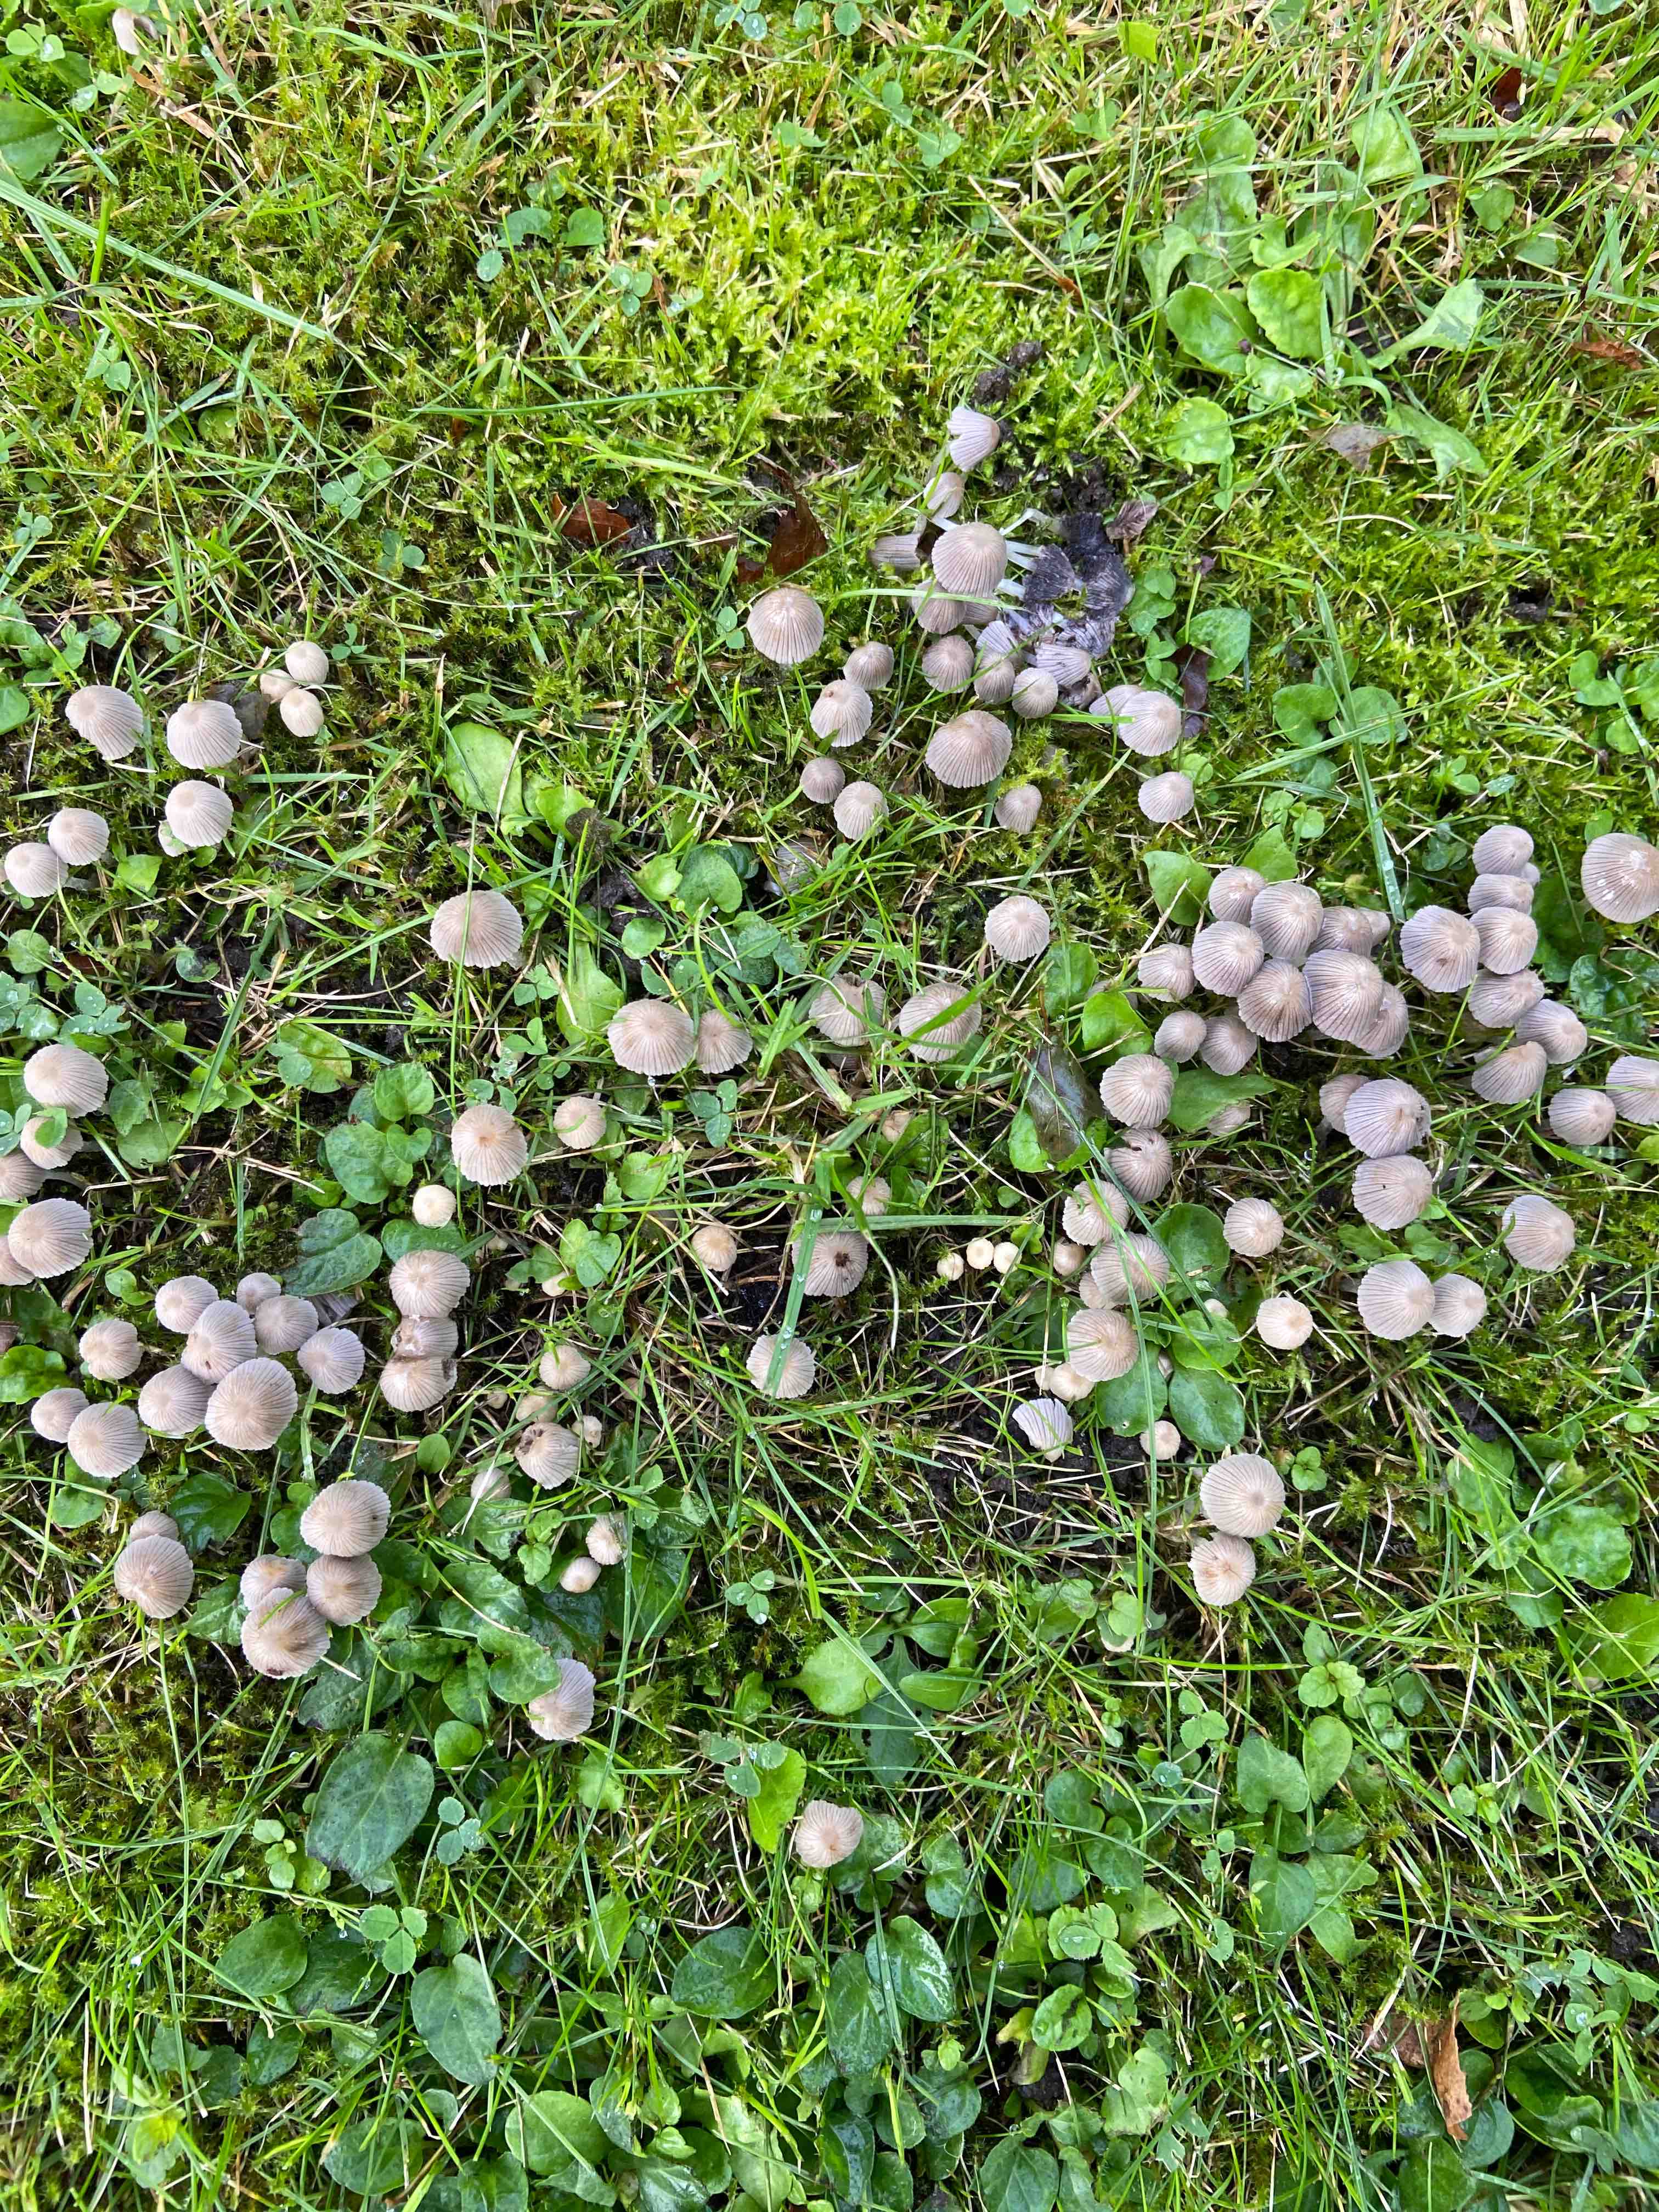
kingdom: Fungi
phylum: Basidiomycota
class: Agaricomycetes
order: Agaricales
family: Psathyrellaceae
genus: Coprinellus
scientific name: Coprinellus disseminatus
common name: bredsået blækhat
